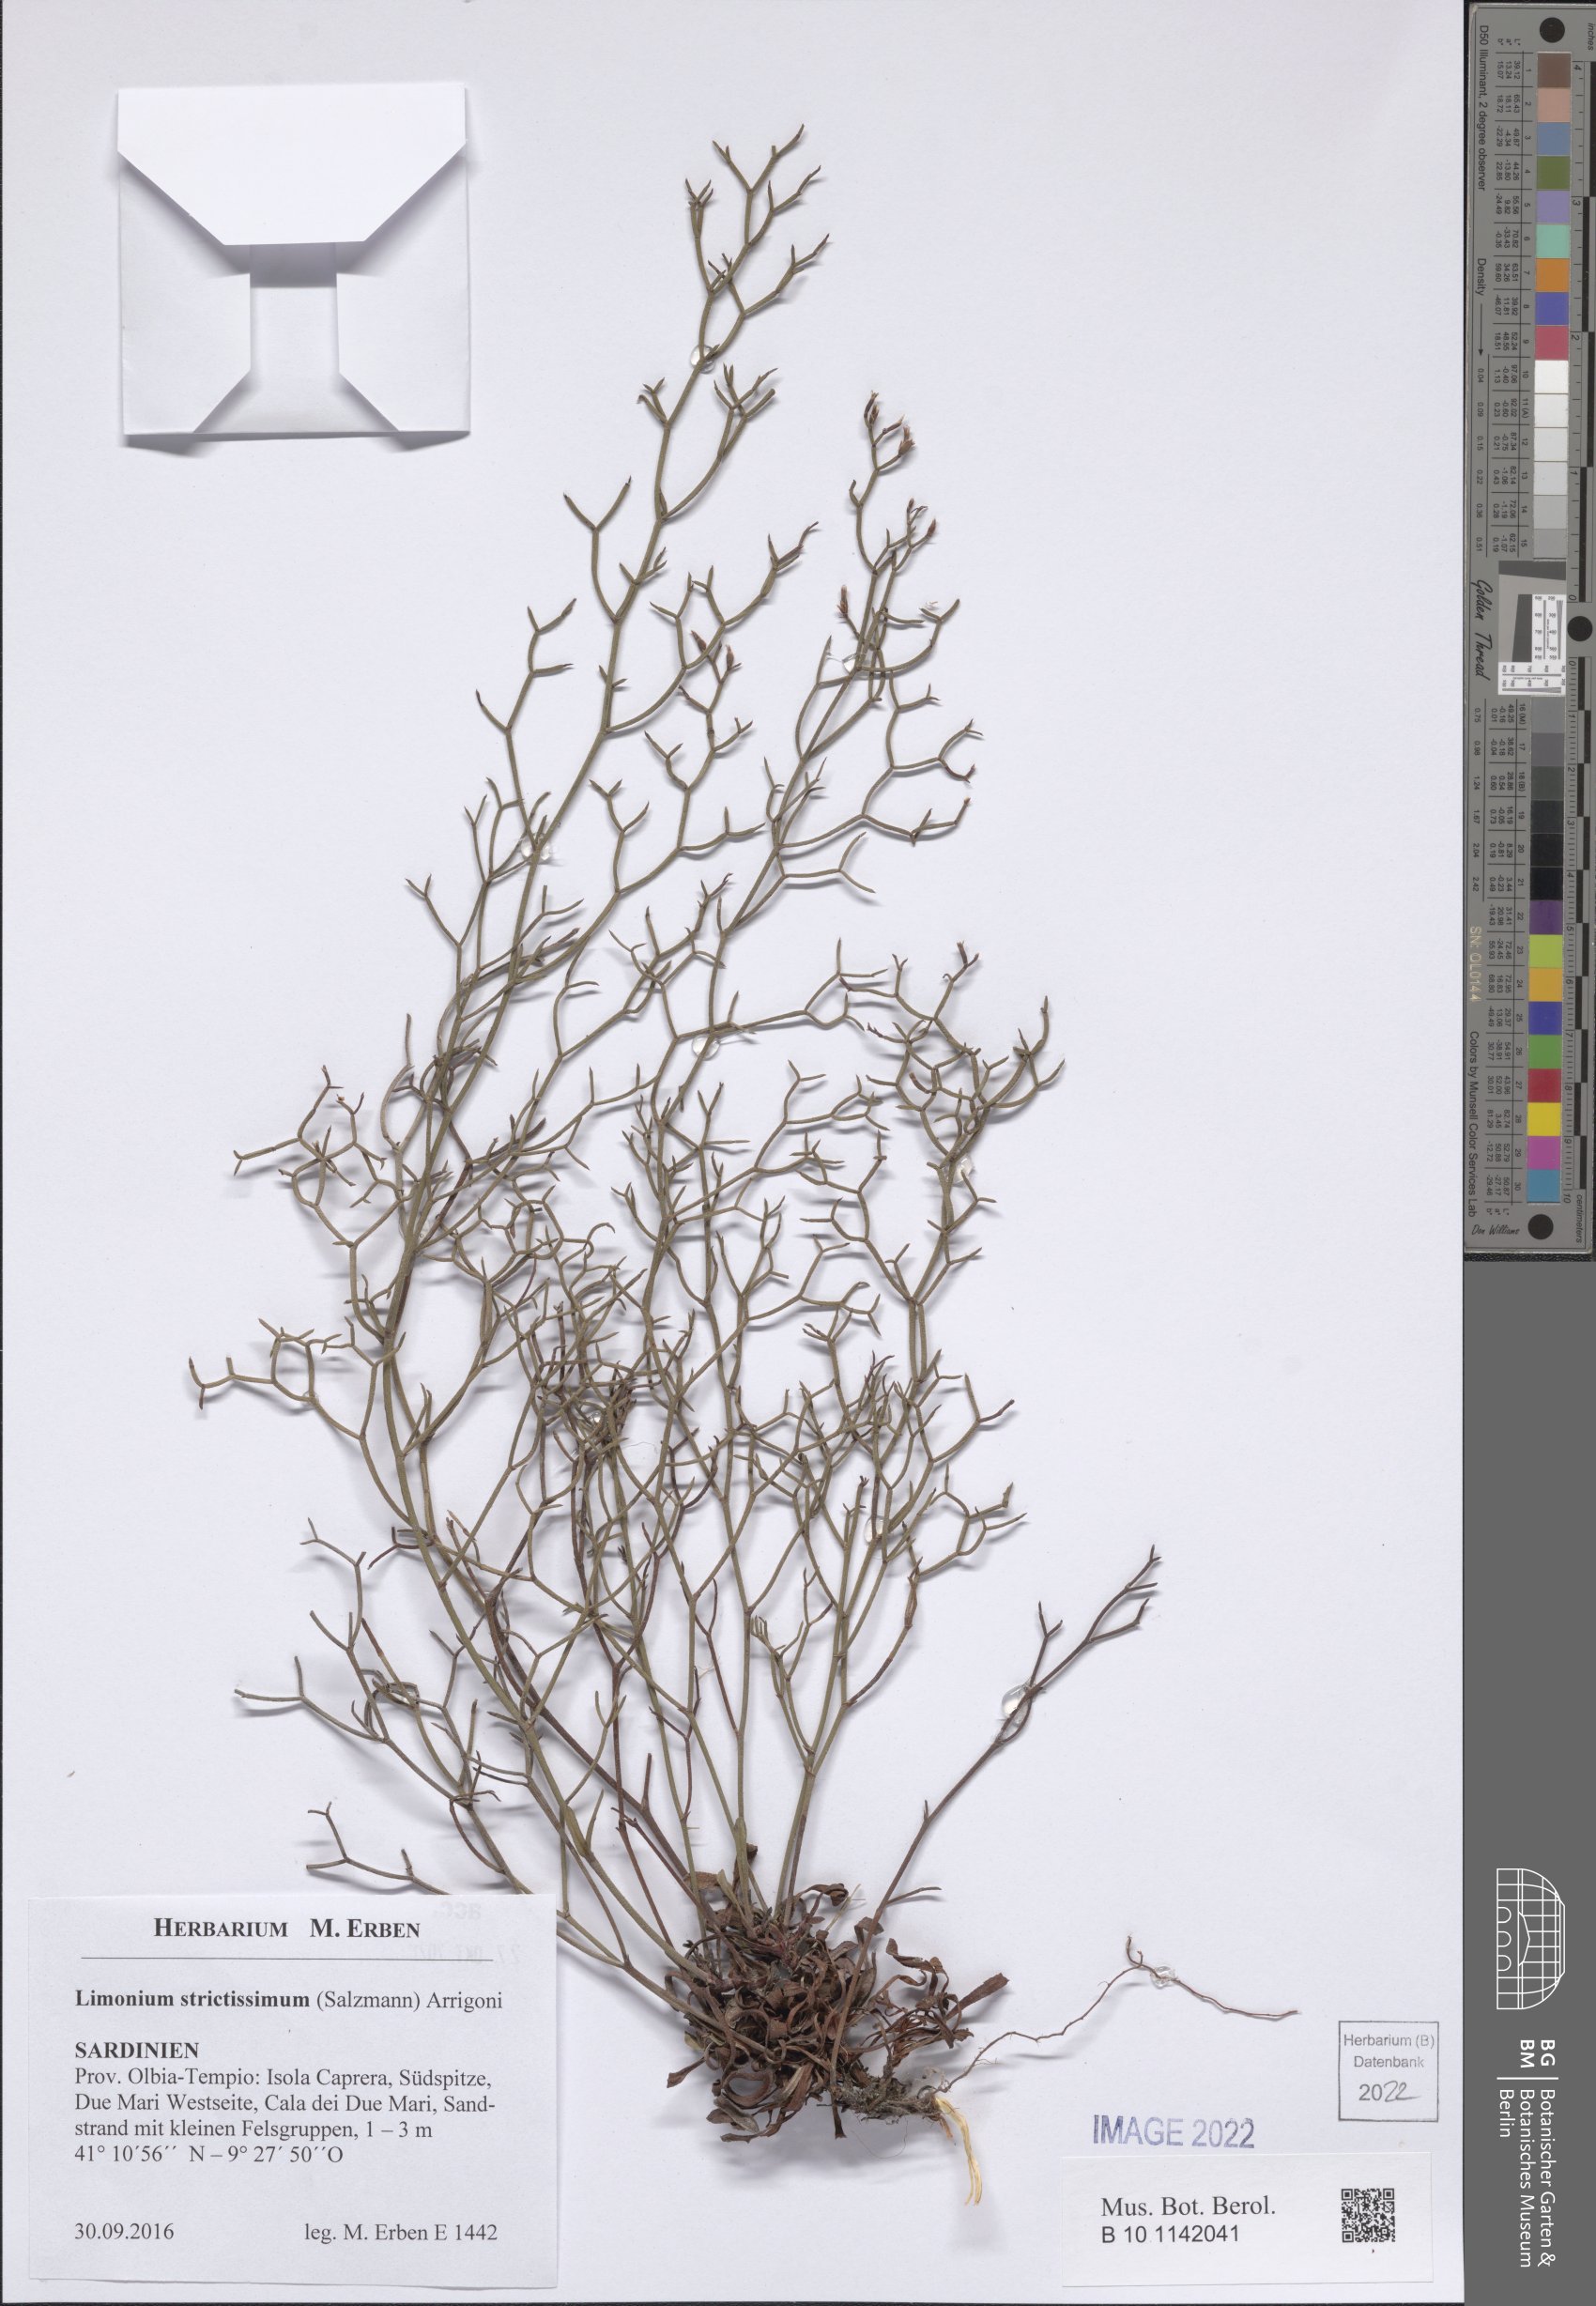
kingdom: Plantae
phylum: Tracheophyta
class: Magnoliopsida
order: Caryophyllales
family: Plumbaginaceae
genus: Limonium
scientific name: Limonium strictissimum
